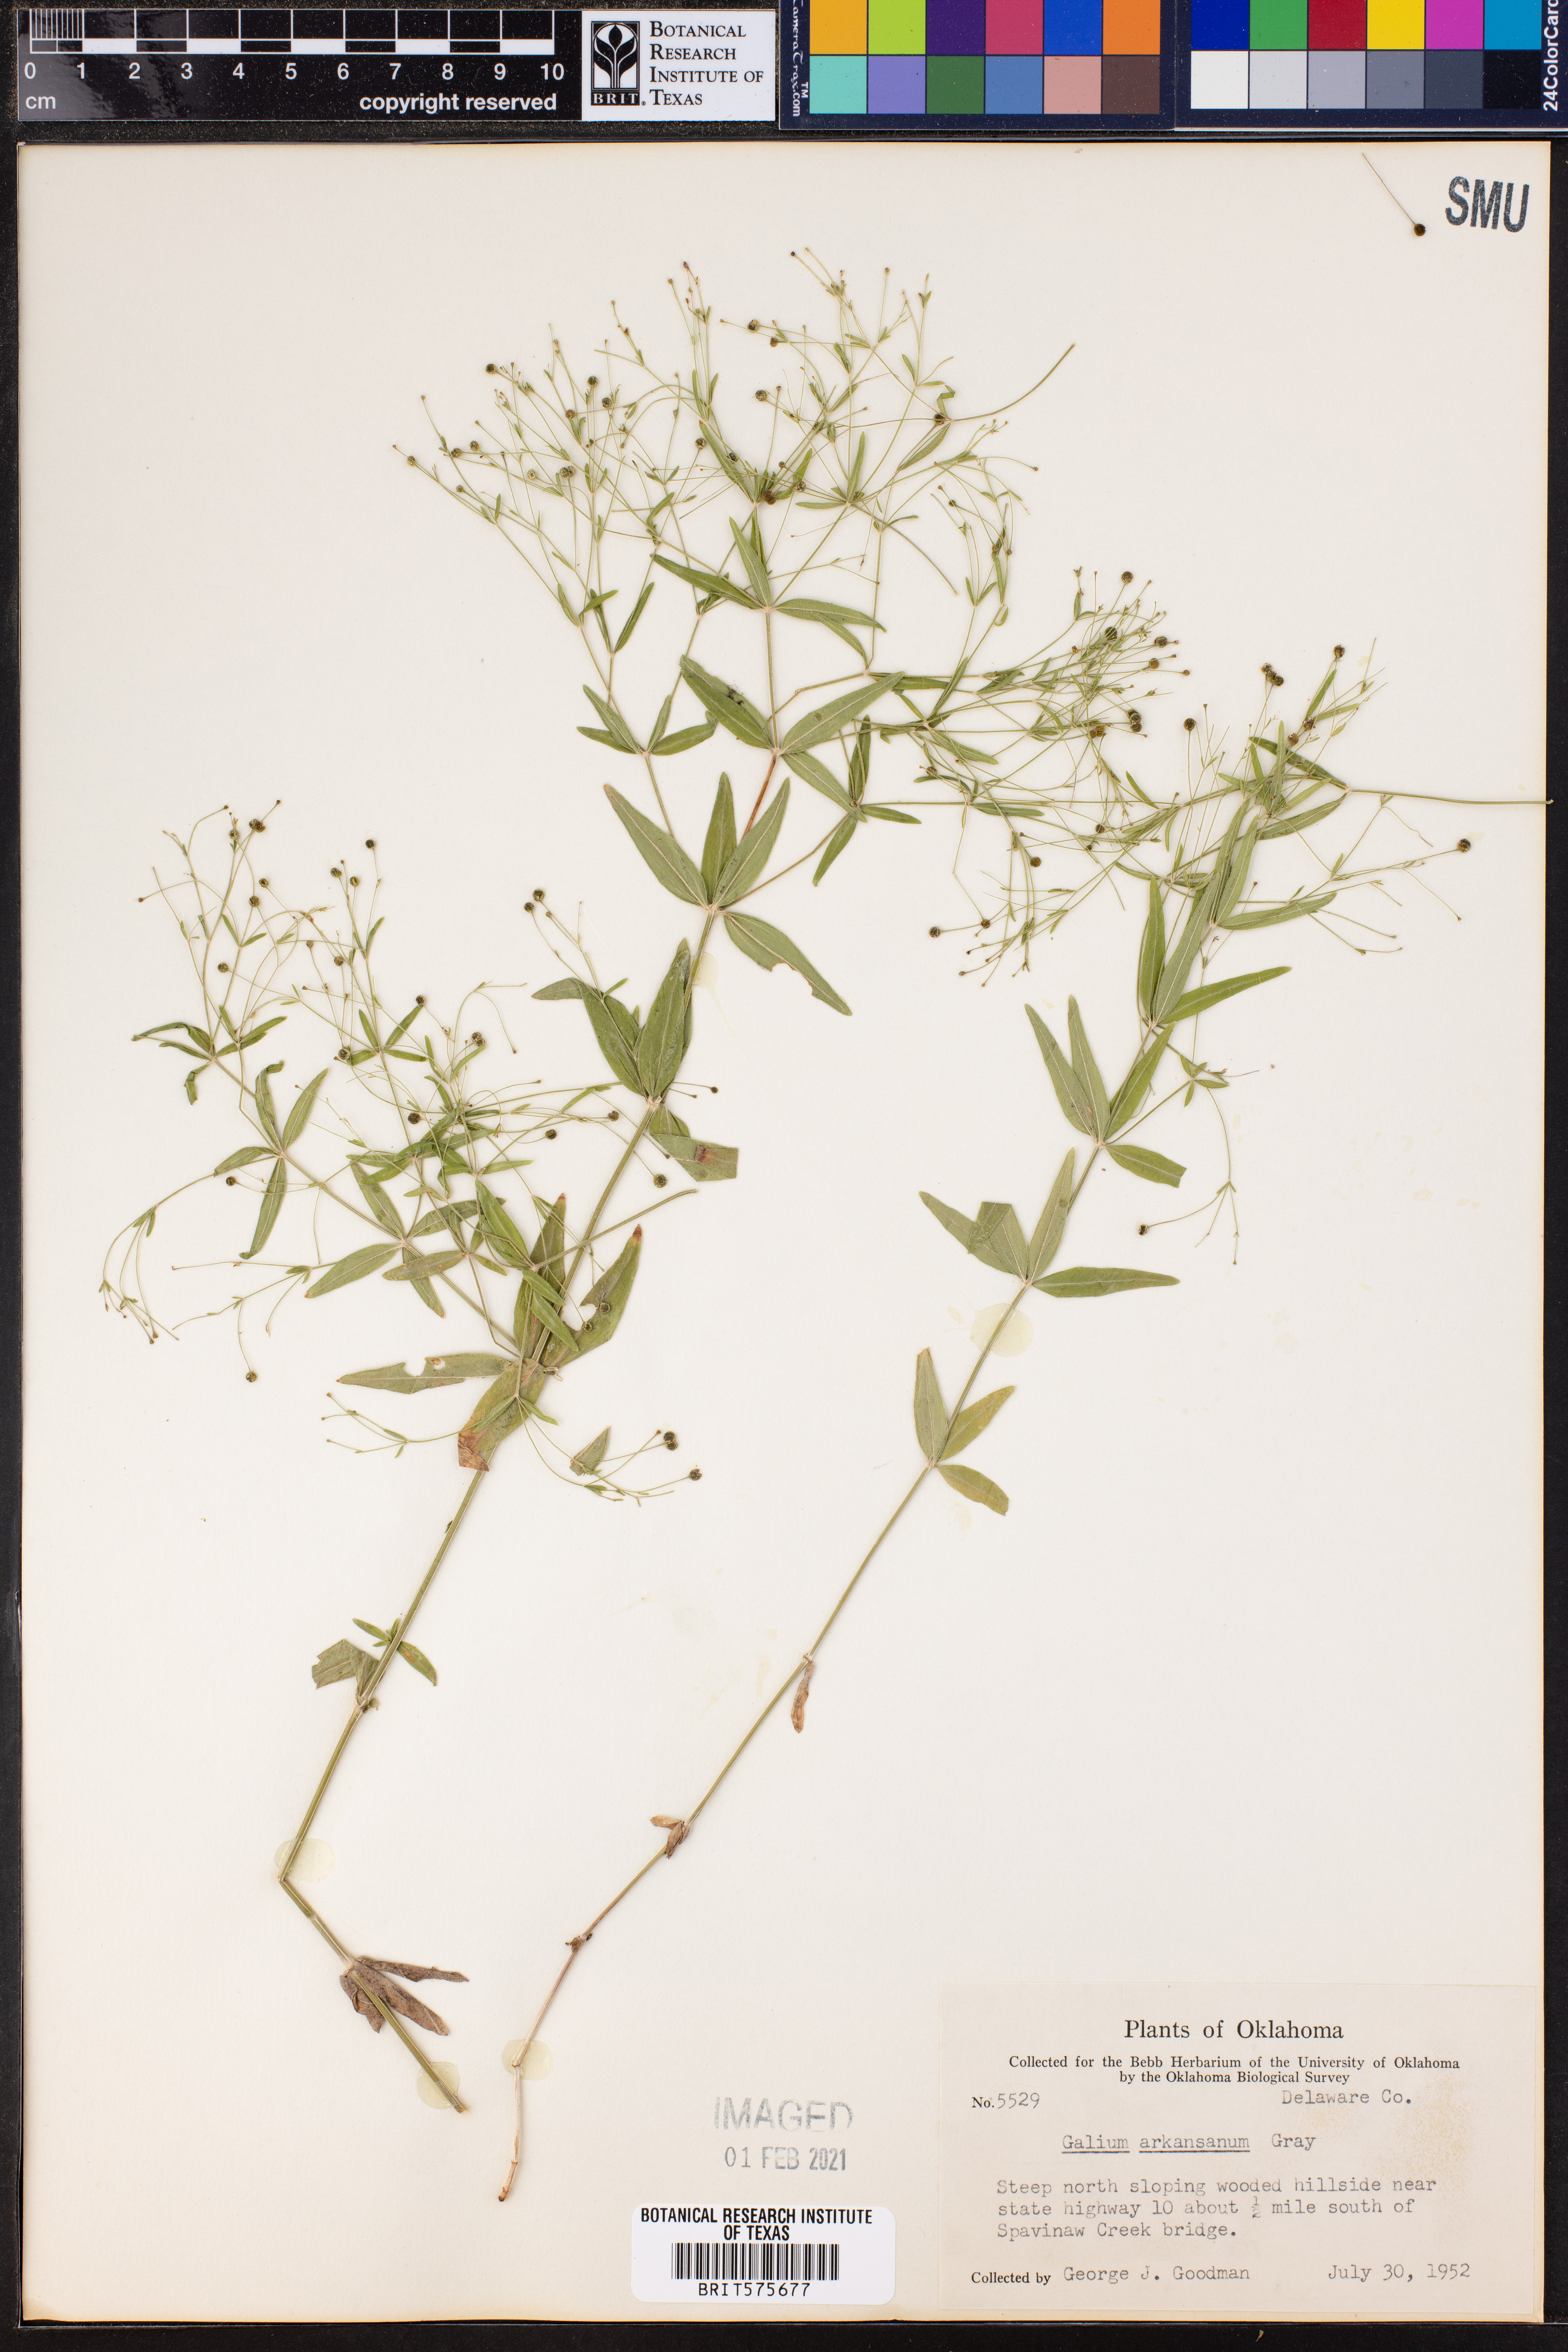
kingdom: Plantae
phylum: Tracheophyta
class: Magnoliopsida
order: Gentianales
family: Rubiaceae
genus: Galium
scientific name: Galium arkansanum
